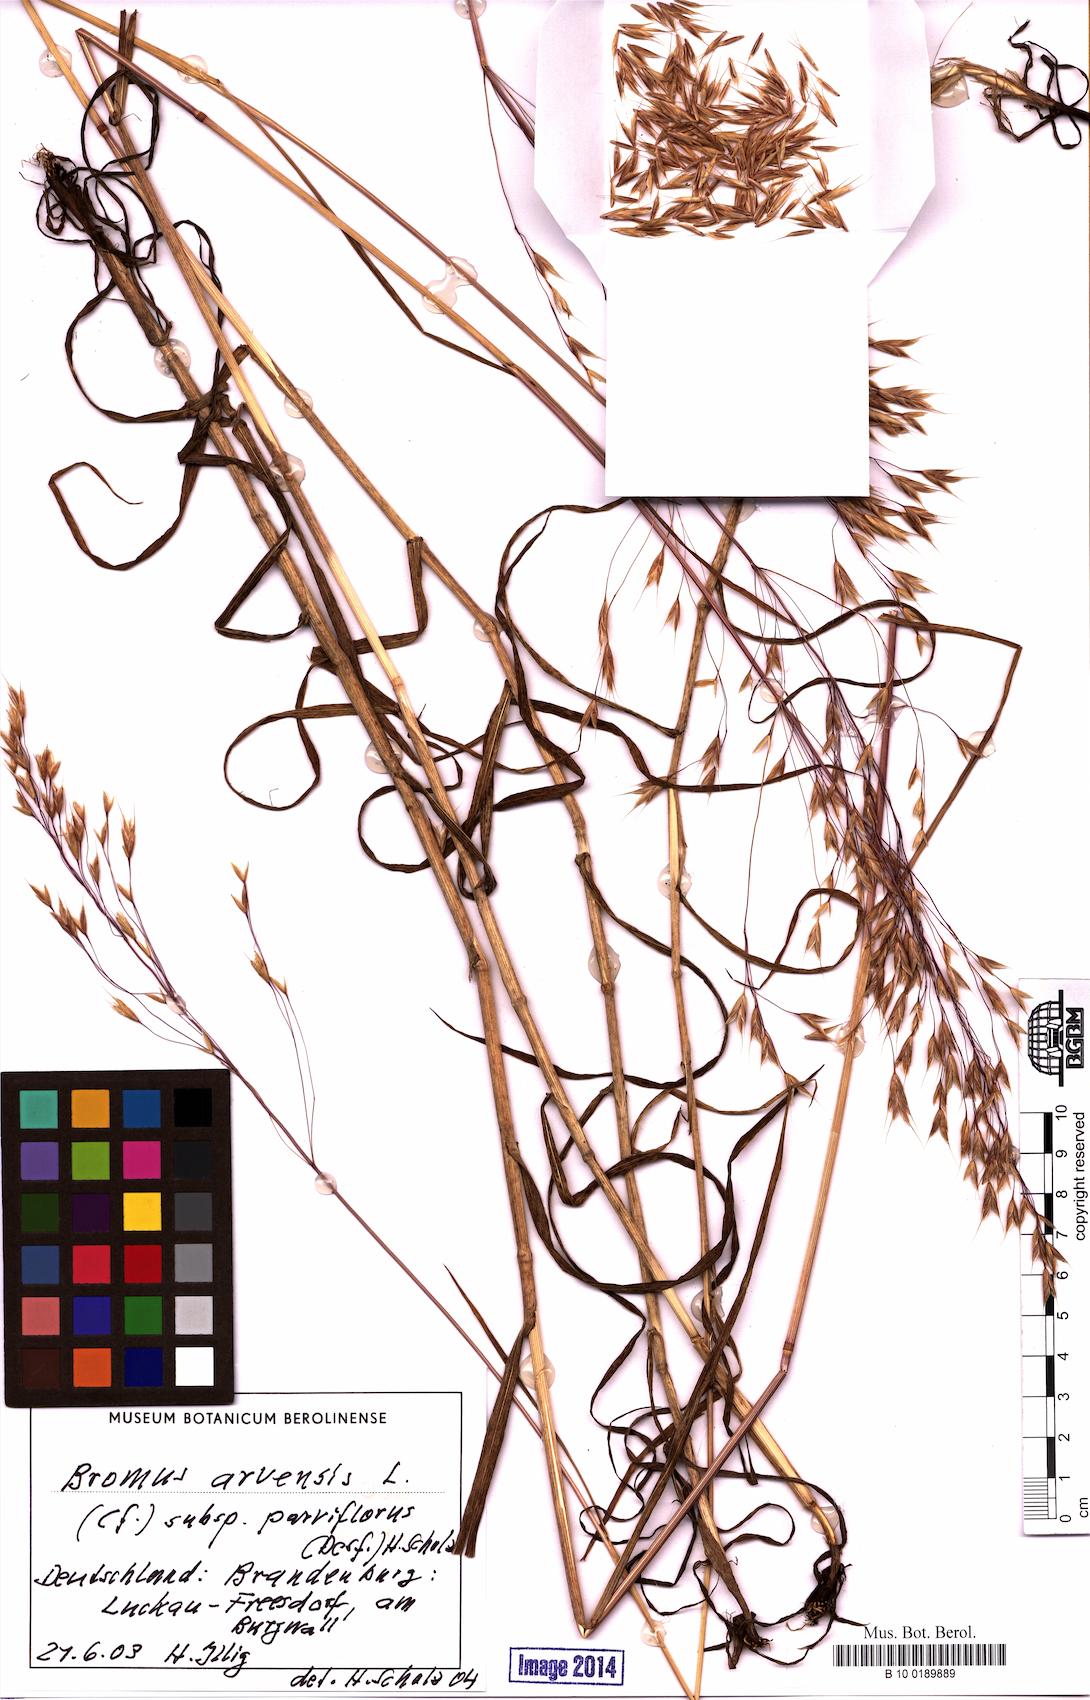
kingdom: Plantae
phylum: Tracheophyta
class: Liliopsida
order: Poales
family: Poaceae
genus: Bromus
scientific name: Bromus arvensis
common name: Field brome
